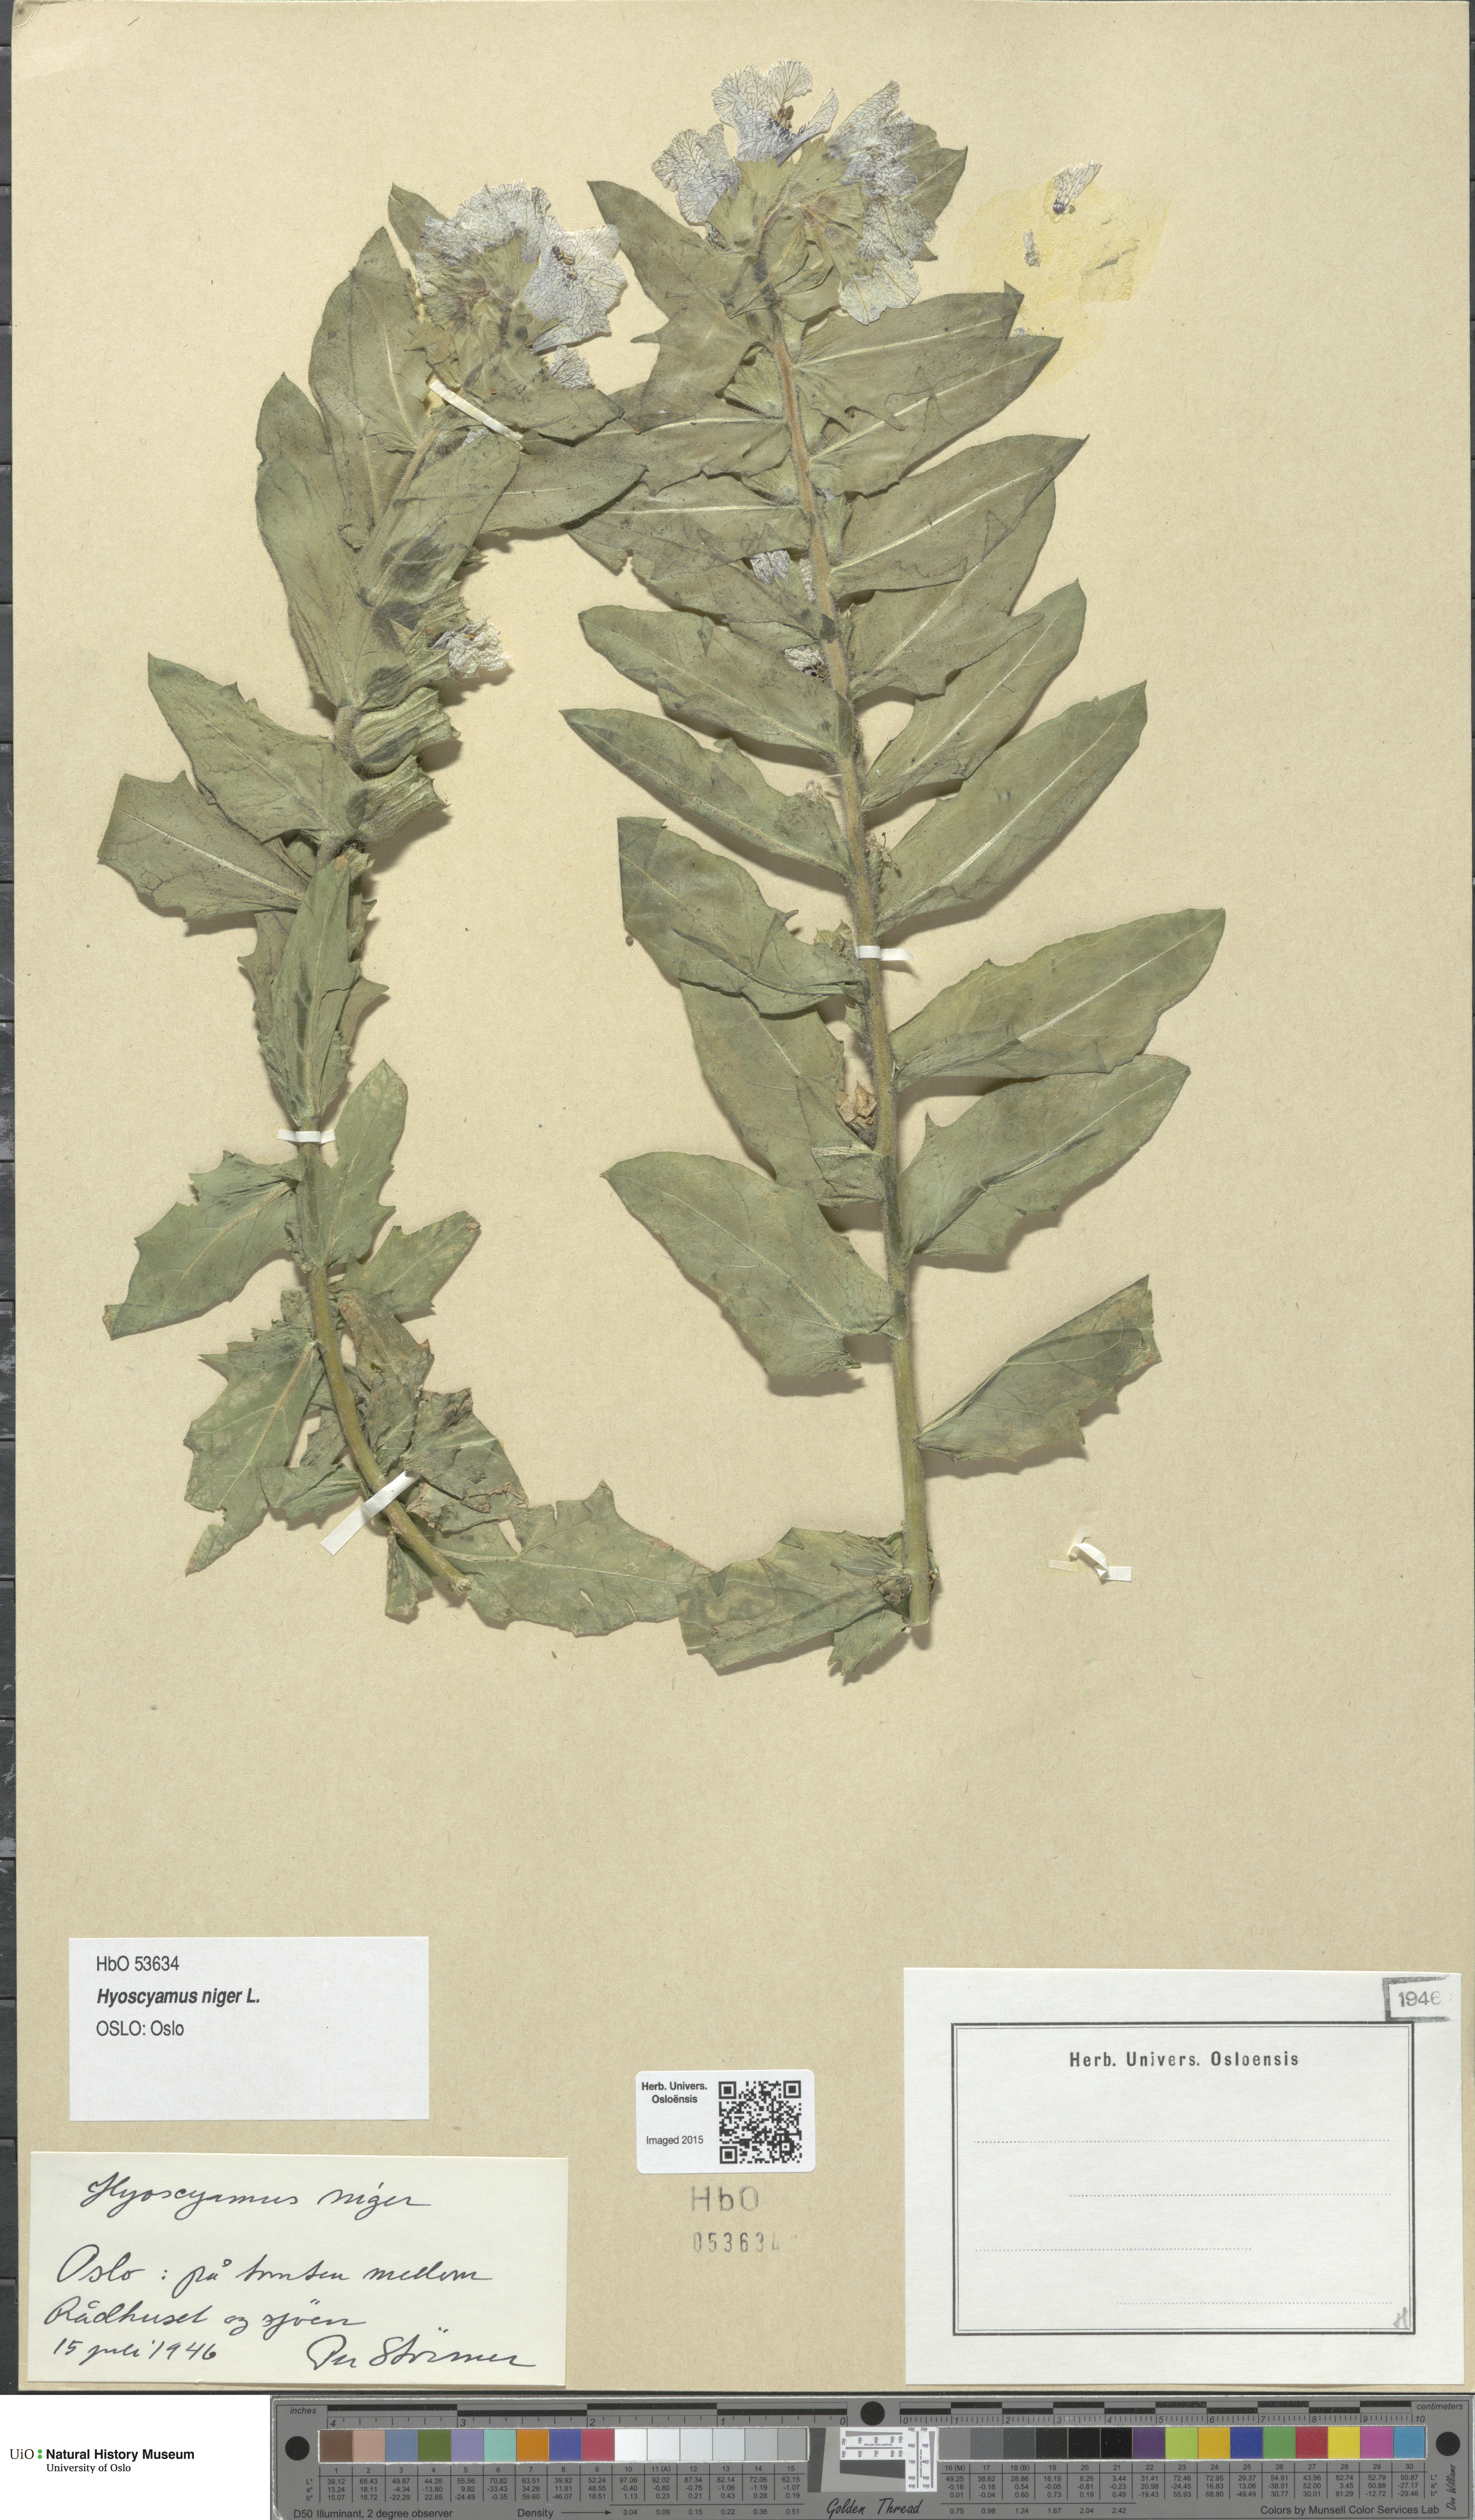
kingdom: Plantae
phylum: Tracheophyta
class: Magnoliopsida
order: Solanales
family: Solanaceae
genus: Hyoscyamus
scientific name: Hyoscyamus niger
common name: Henbane
